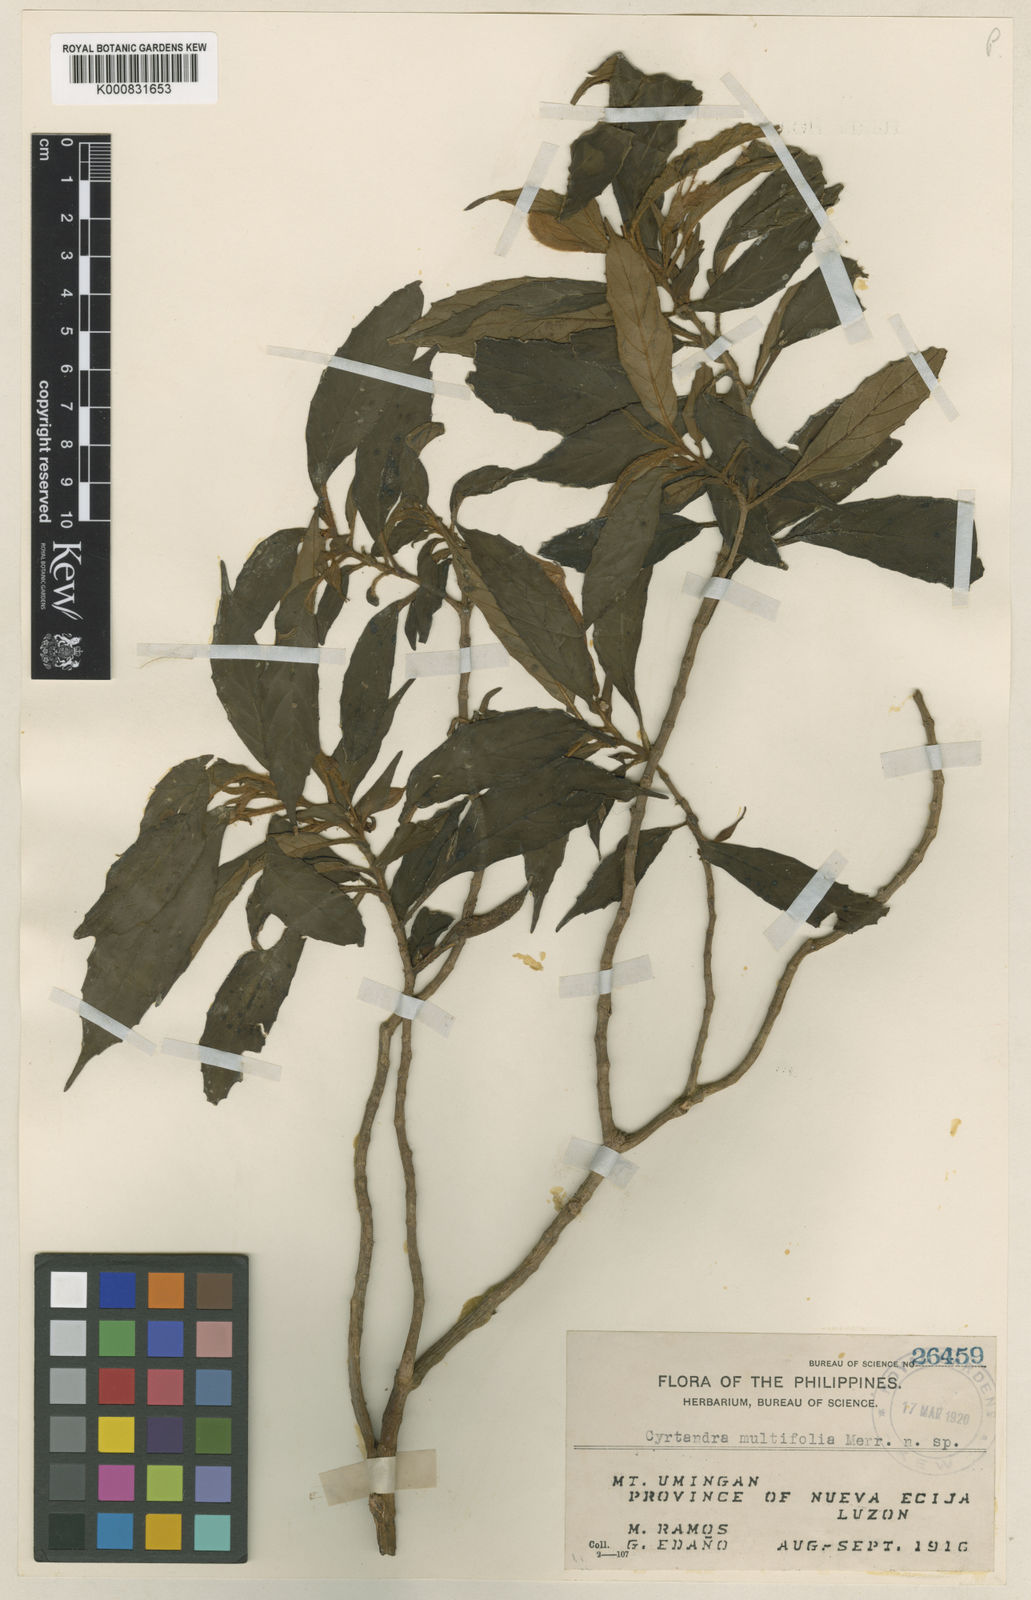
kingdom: Plantae
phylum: Tracheophyta
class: Magnoliopsida
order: Lamiales
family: Gesneriaceae
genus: Cyrtandra
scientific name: Cyrtandra multifolia
